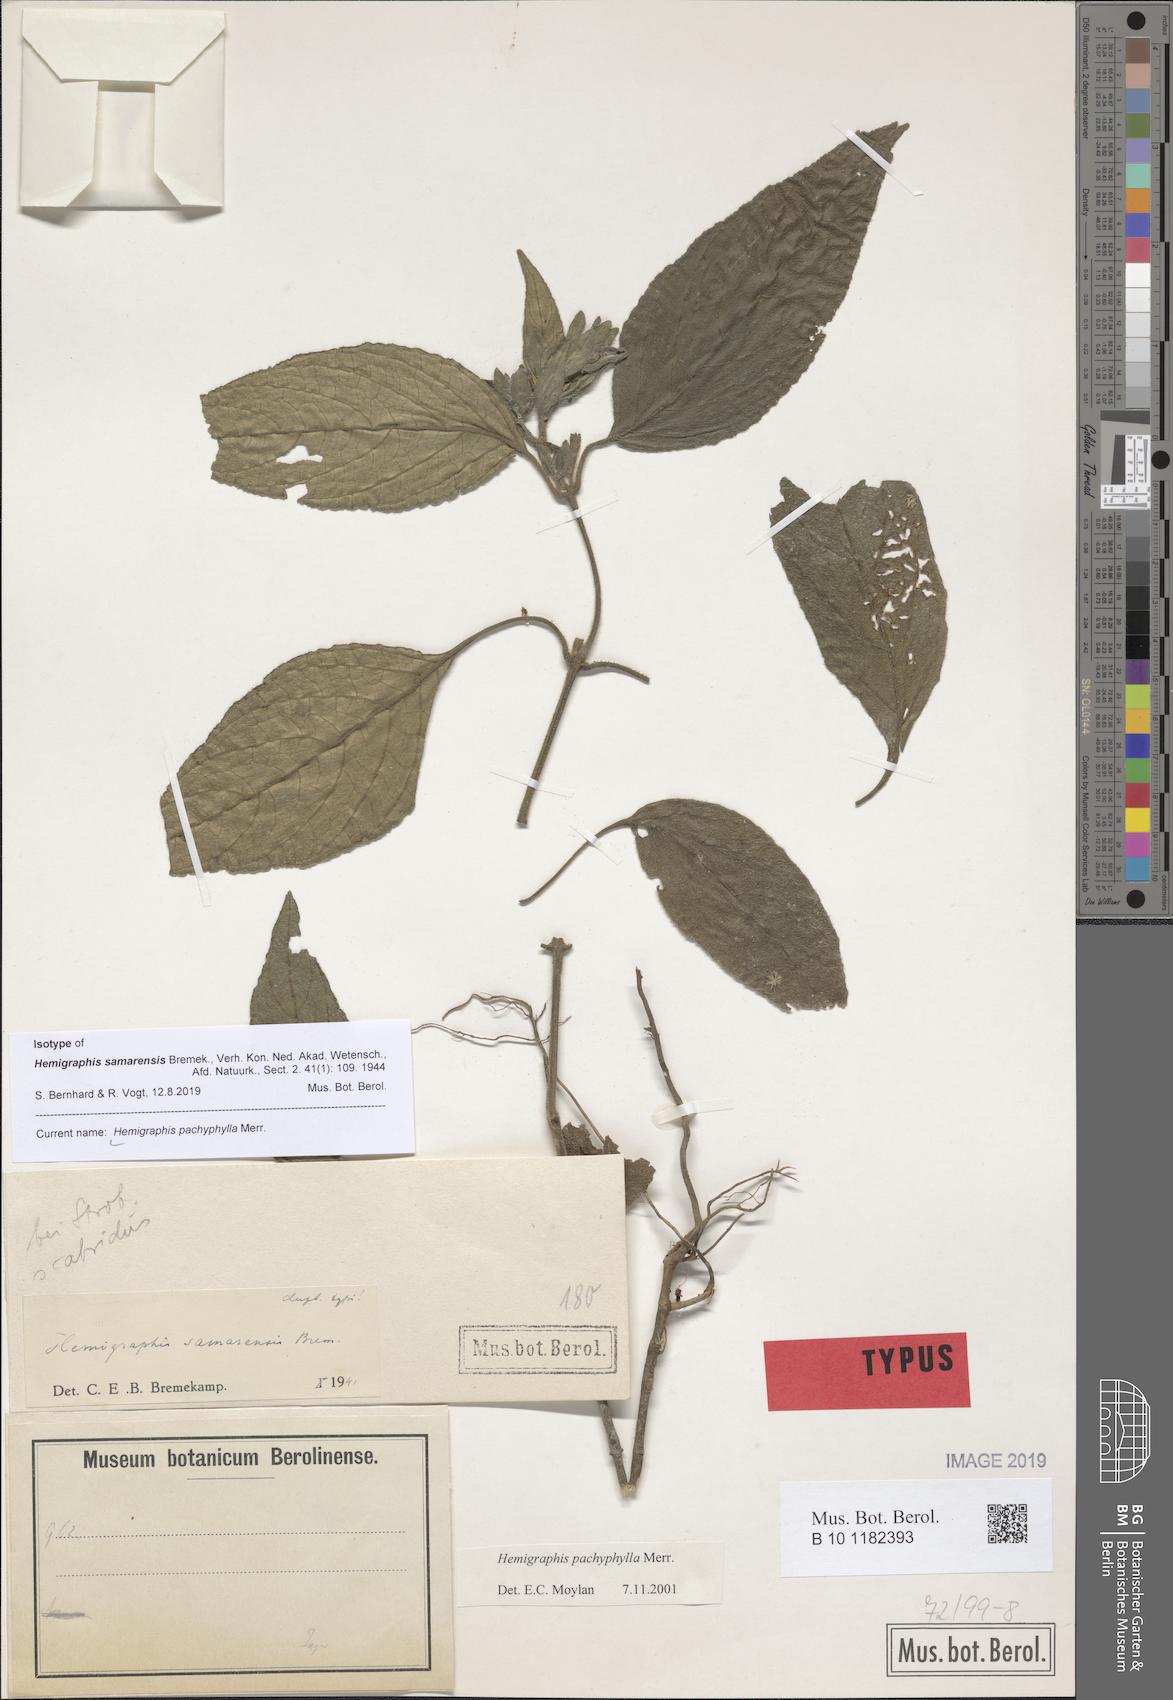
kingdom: Plantae
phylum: Tracheophyta
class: Magnoliopsida
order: Lamiales
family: Acanthaceae
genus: Strobilanthes
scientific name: Strobilanthes bulusanensis
